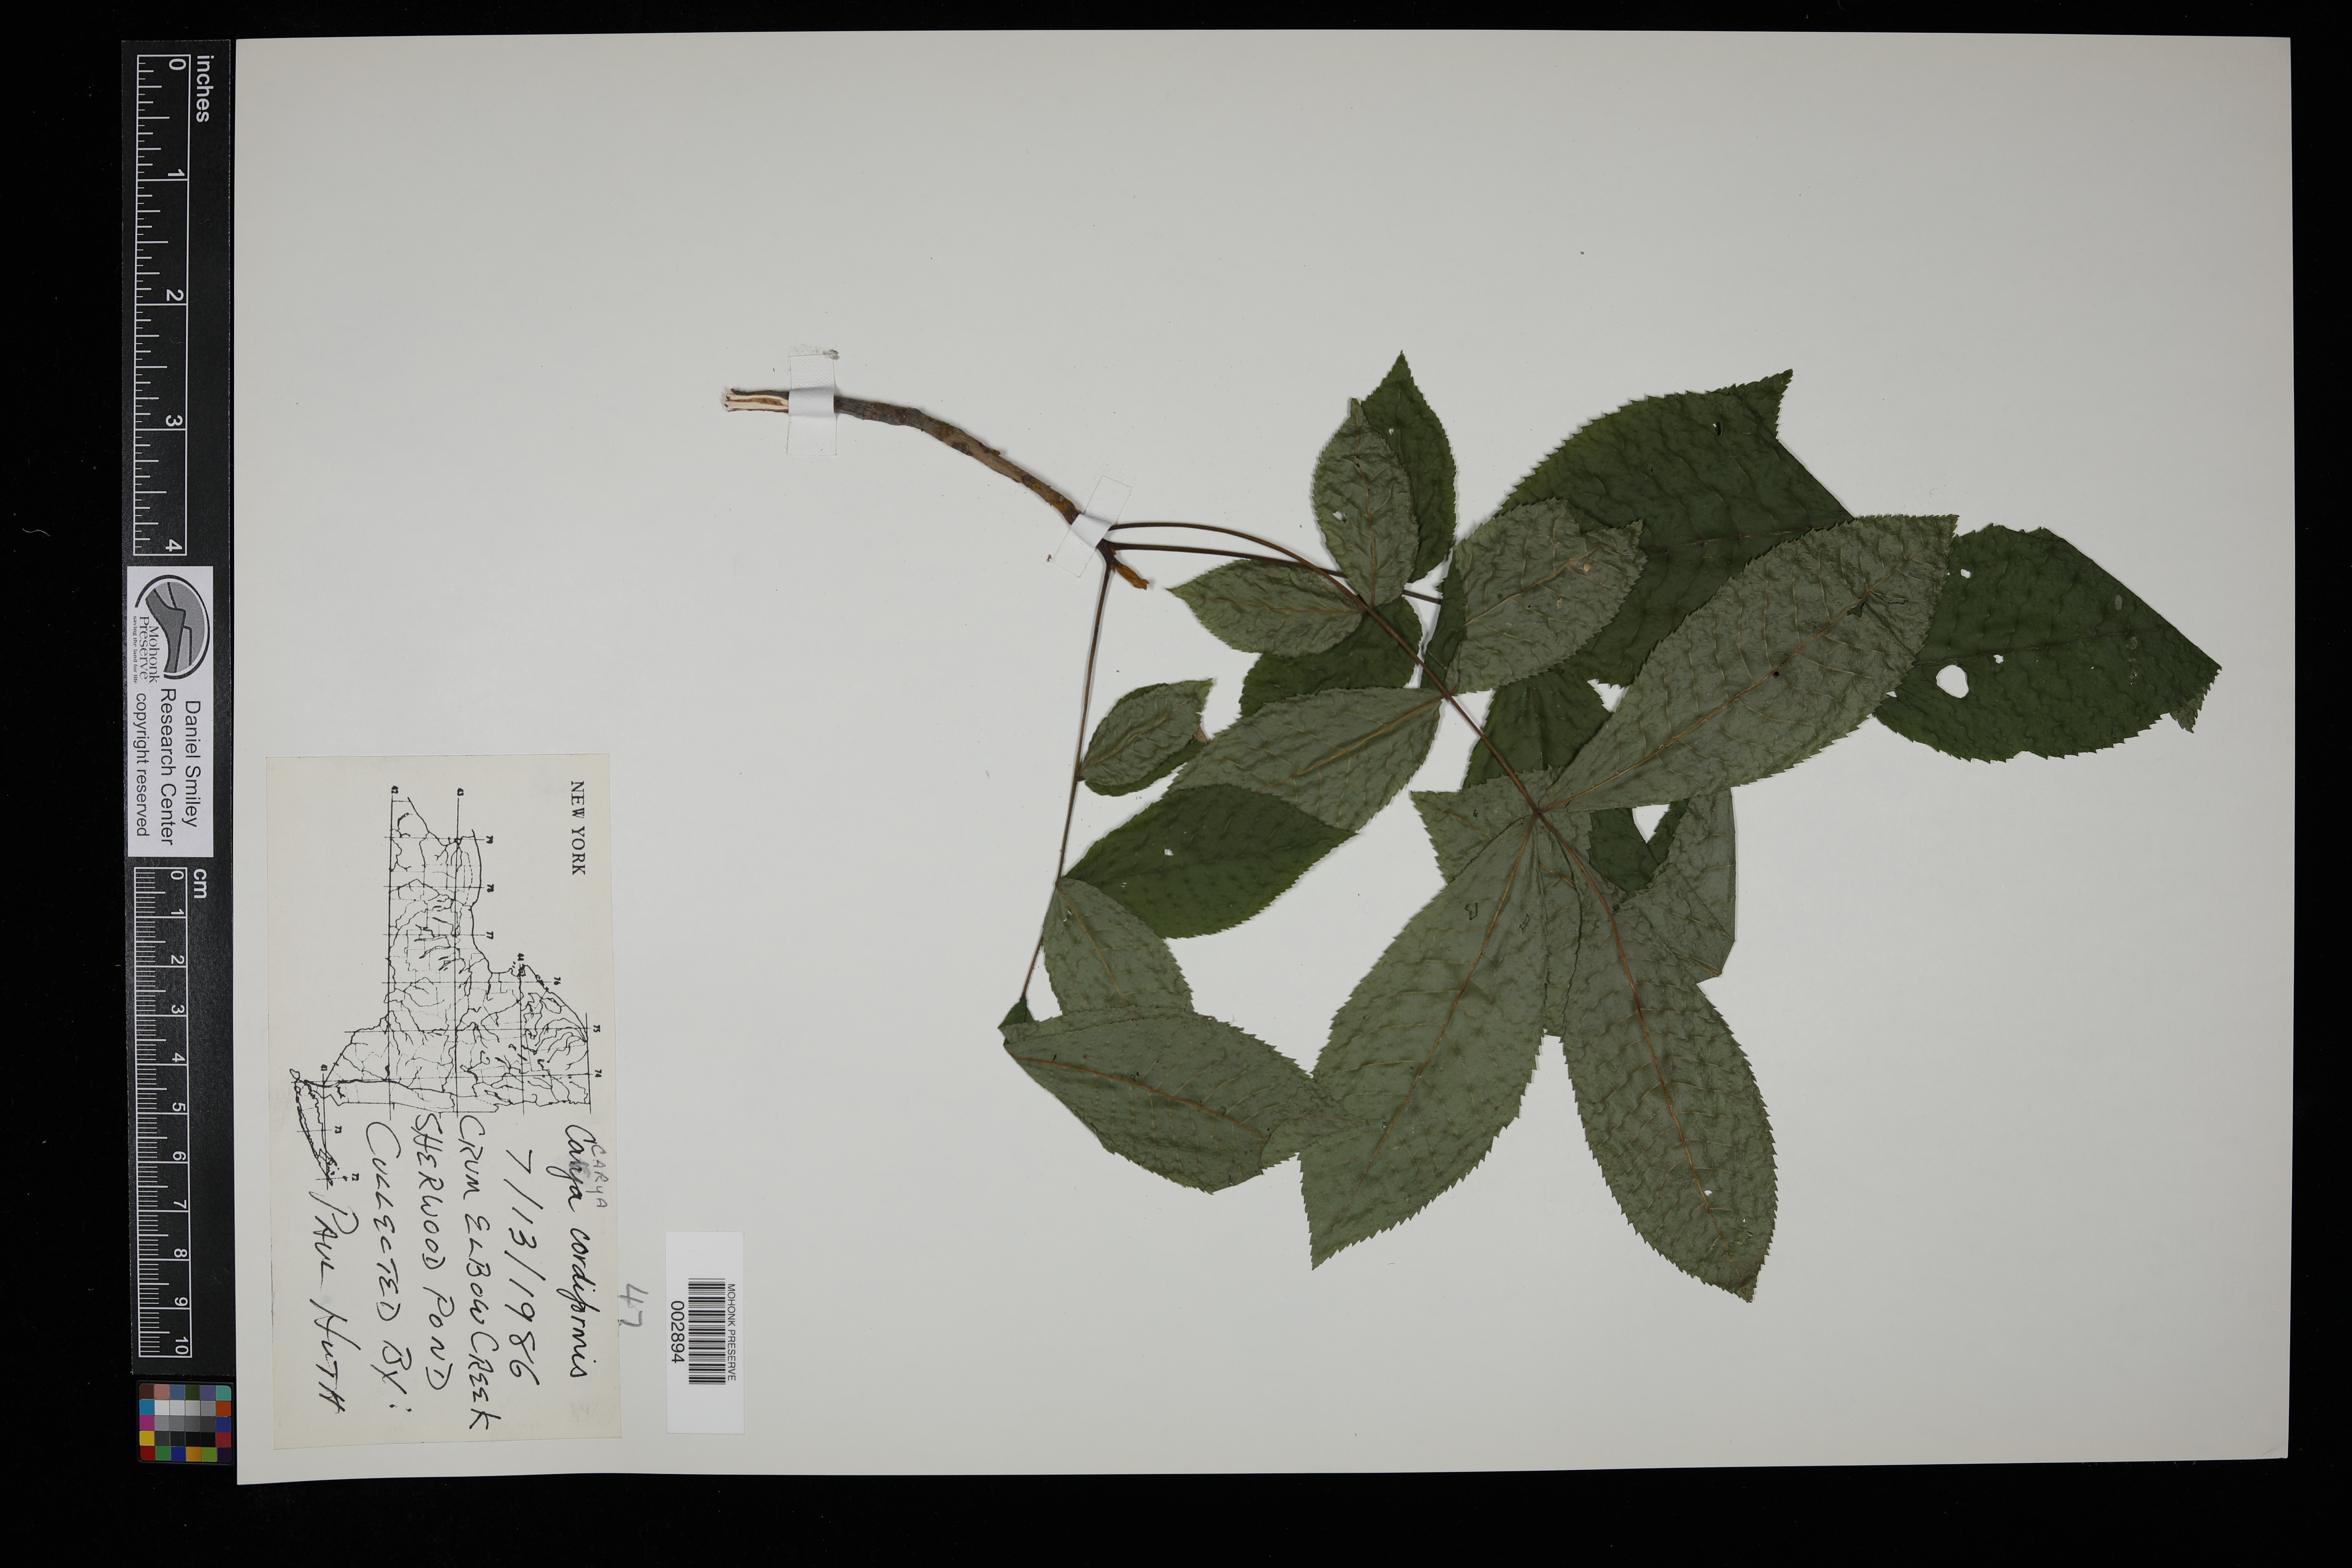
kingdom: Plantae
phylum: Tracheophyta
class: Magnoliopsida
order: Fagales
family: Juglandaceae
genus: Carya
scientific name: Carya cordiformis
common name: Bitternut hickory
